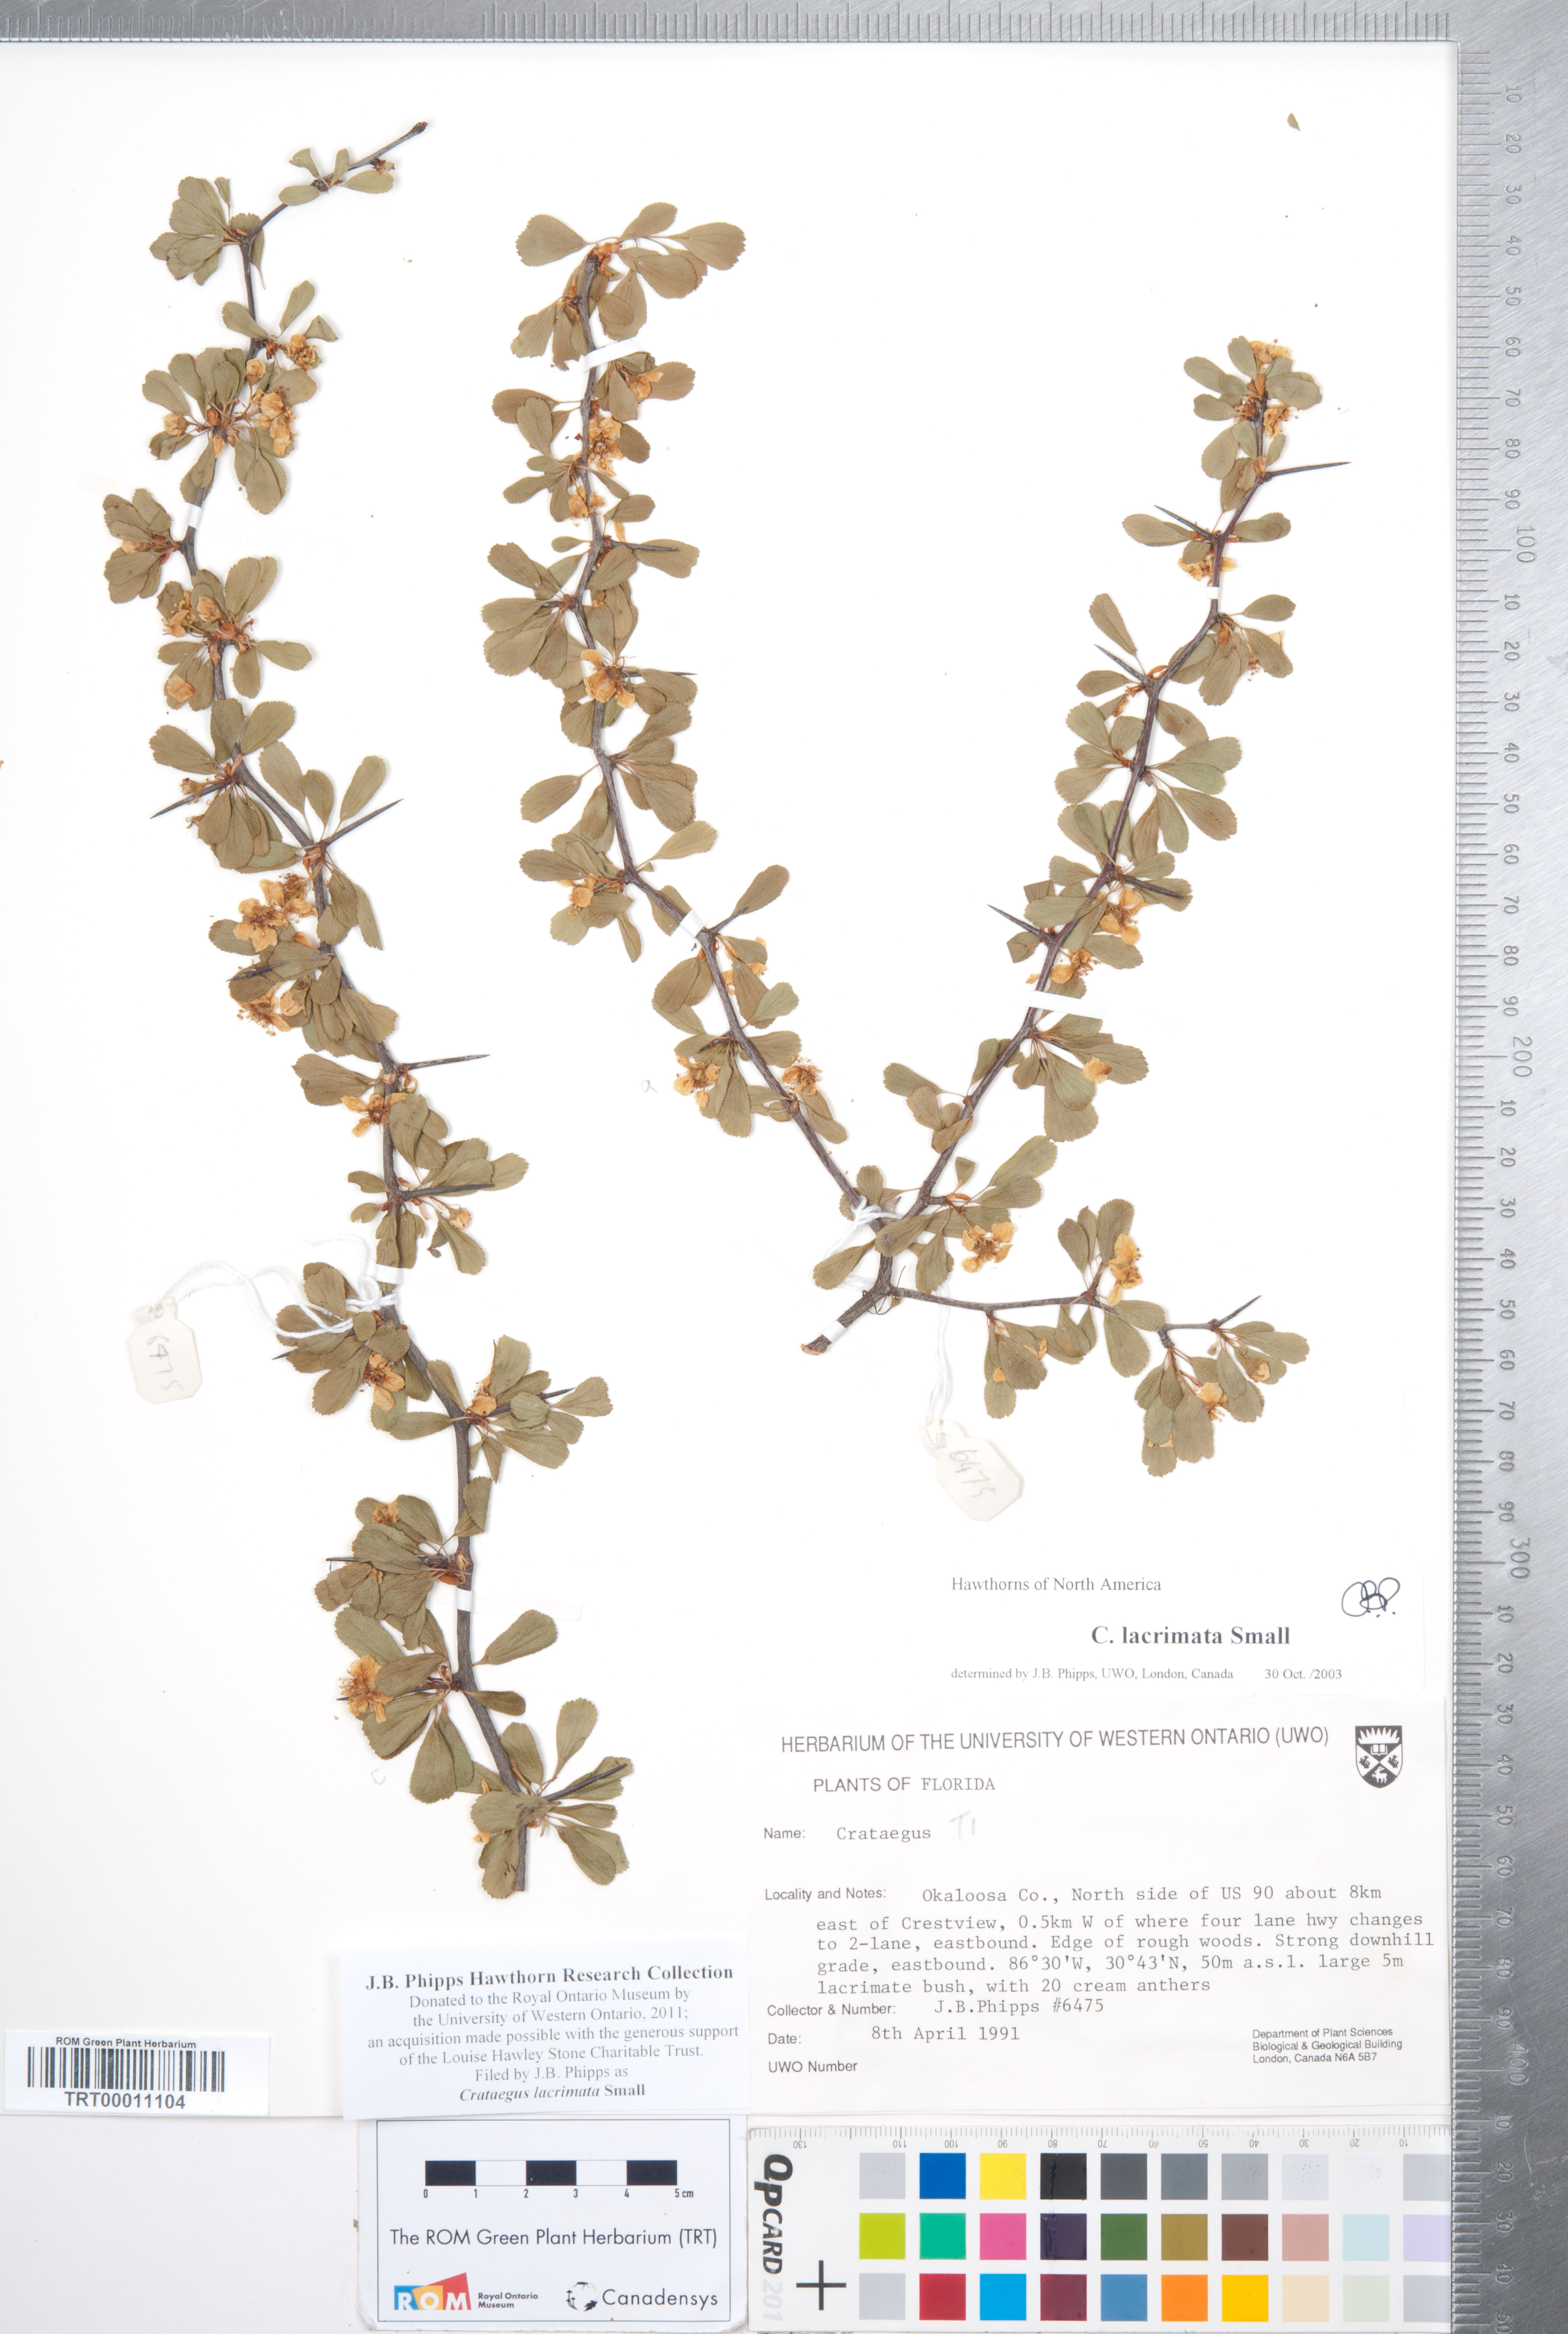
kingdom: Plantae
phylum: Tracheophyta
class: Magnoliopsida
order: Rosales
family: Rosaceae
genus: Crataegus
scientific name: Crataegus lacrimata
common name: Weeping hawthorn
